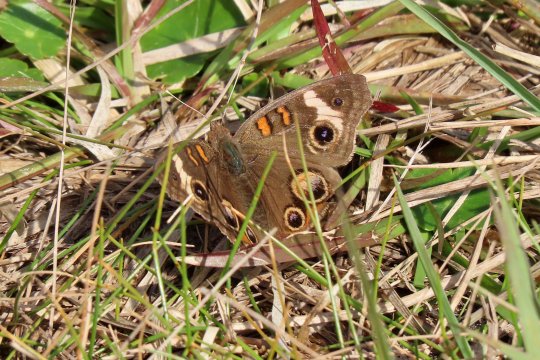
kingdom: Animalia
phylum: Arthropoda
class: Insecta
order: Lepidoptera
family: Nymphalidae
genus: Junonia
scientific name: Junonia coenia
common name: Common Buckeye
